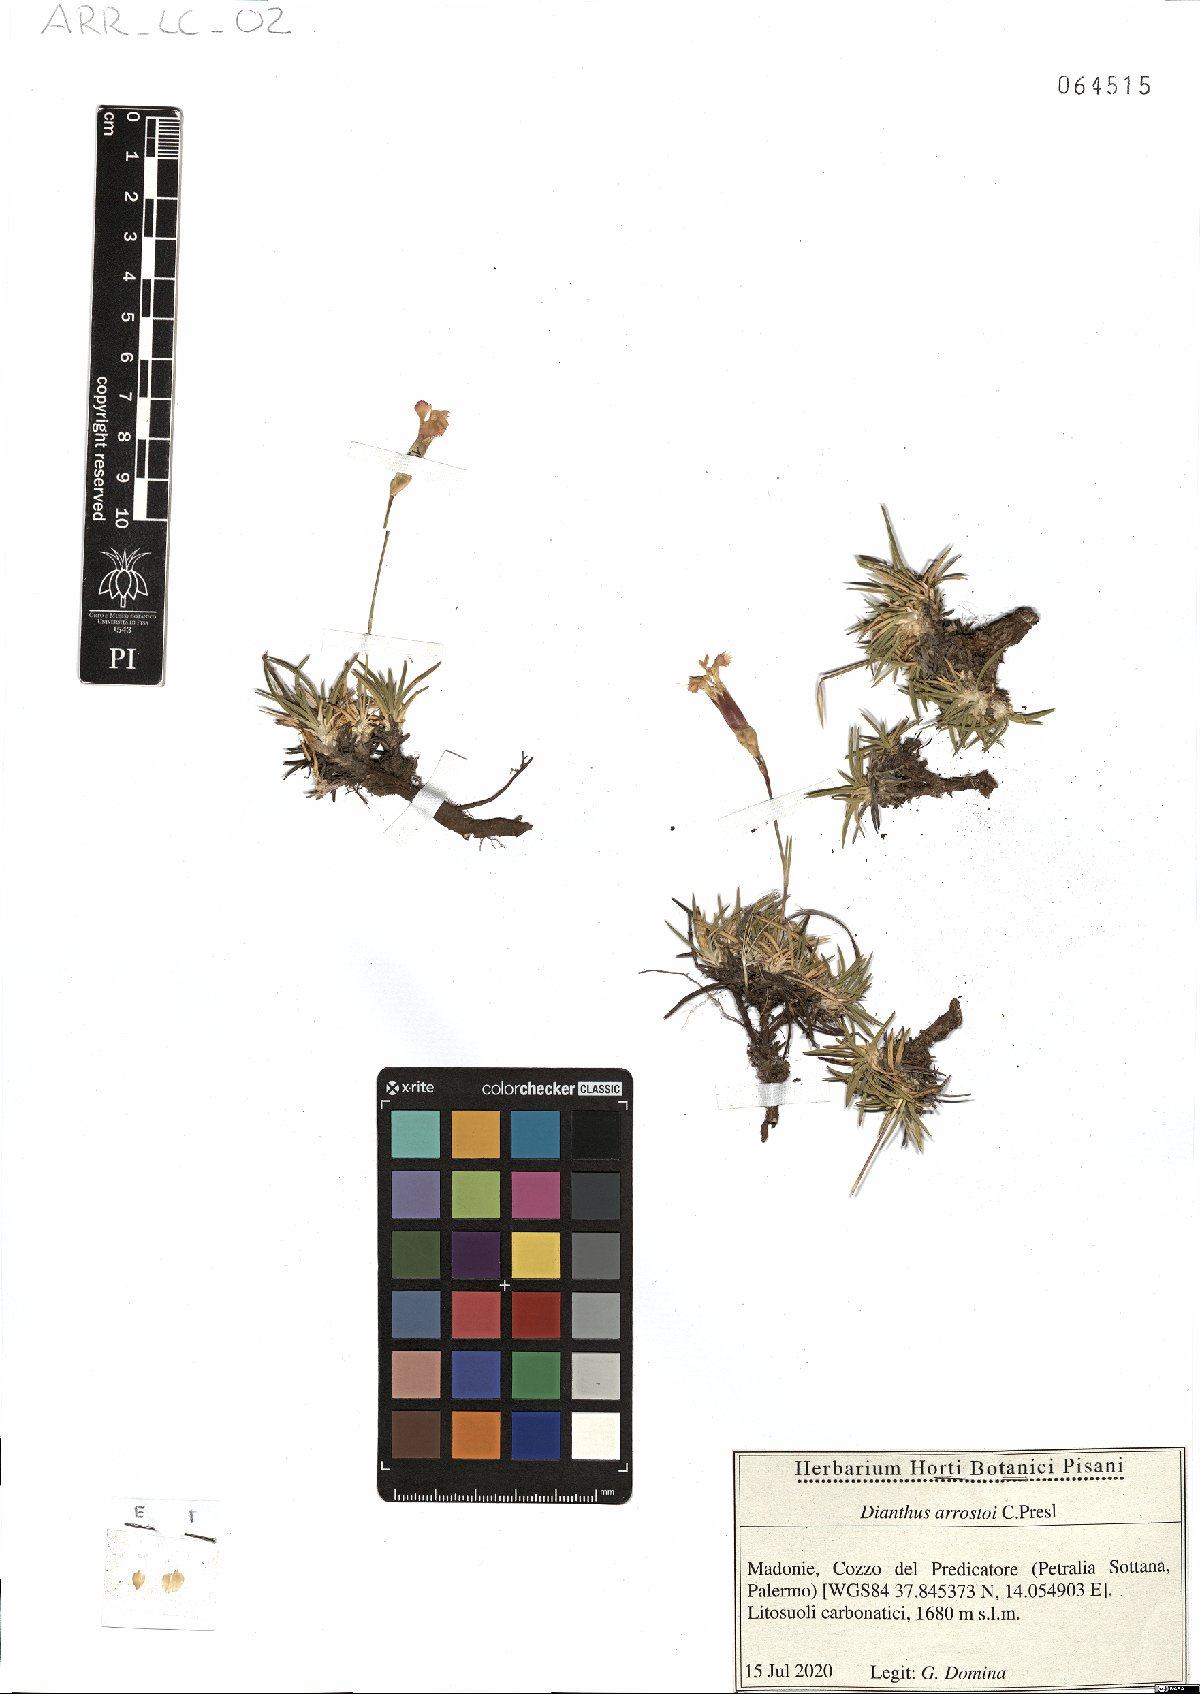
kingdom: Plantae
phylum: Tracheophyta
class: Magnoliopsida
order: Caryophyllales
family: Caryophyllaceae
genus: Dianthus
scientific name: Dianthus arrostoi
